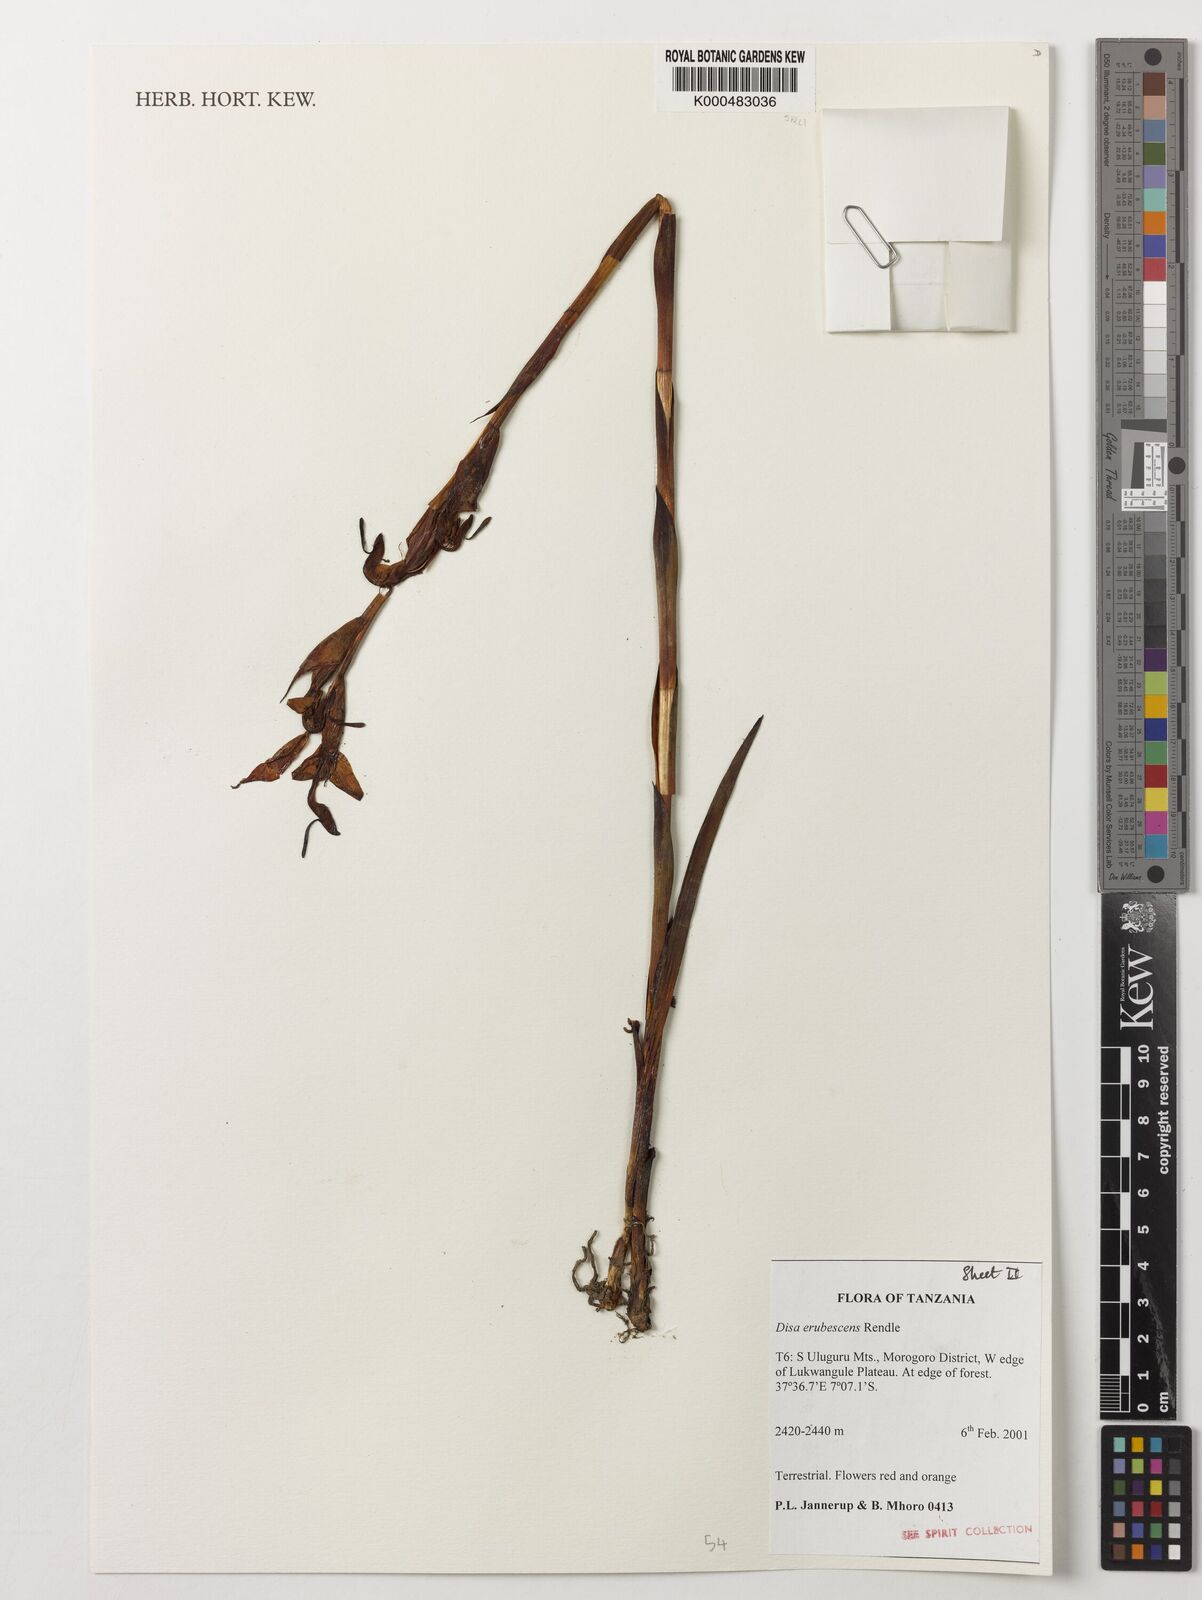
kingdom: Plantae
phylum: Tracheophyta
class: Liliopsida
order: Asparagales
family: Orchidaceae
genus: Disa
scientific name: Disa erubescens
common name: The rose disa
